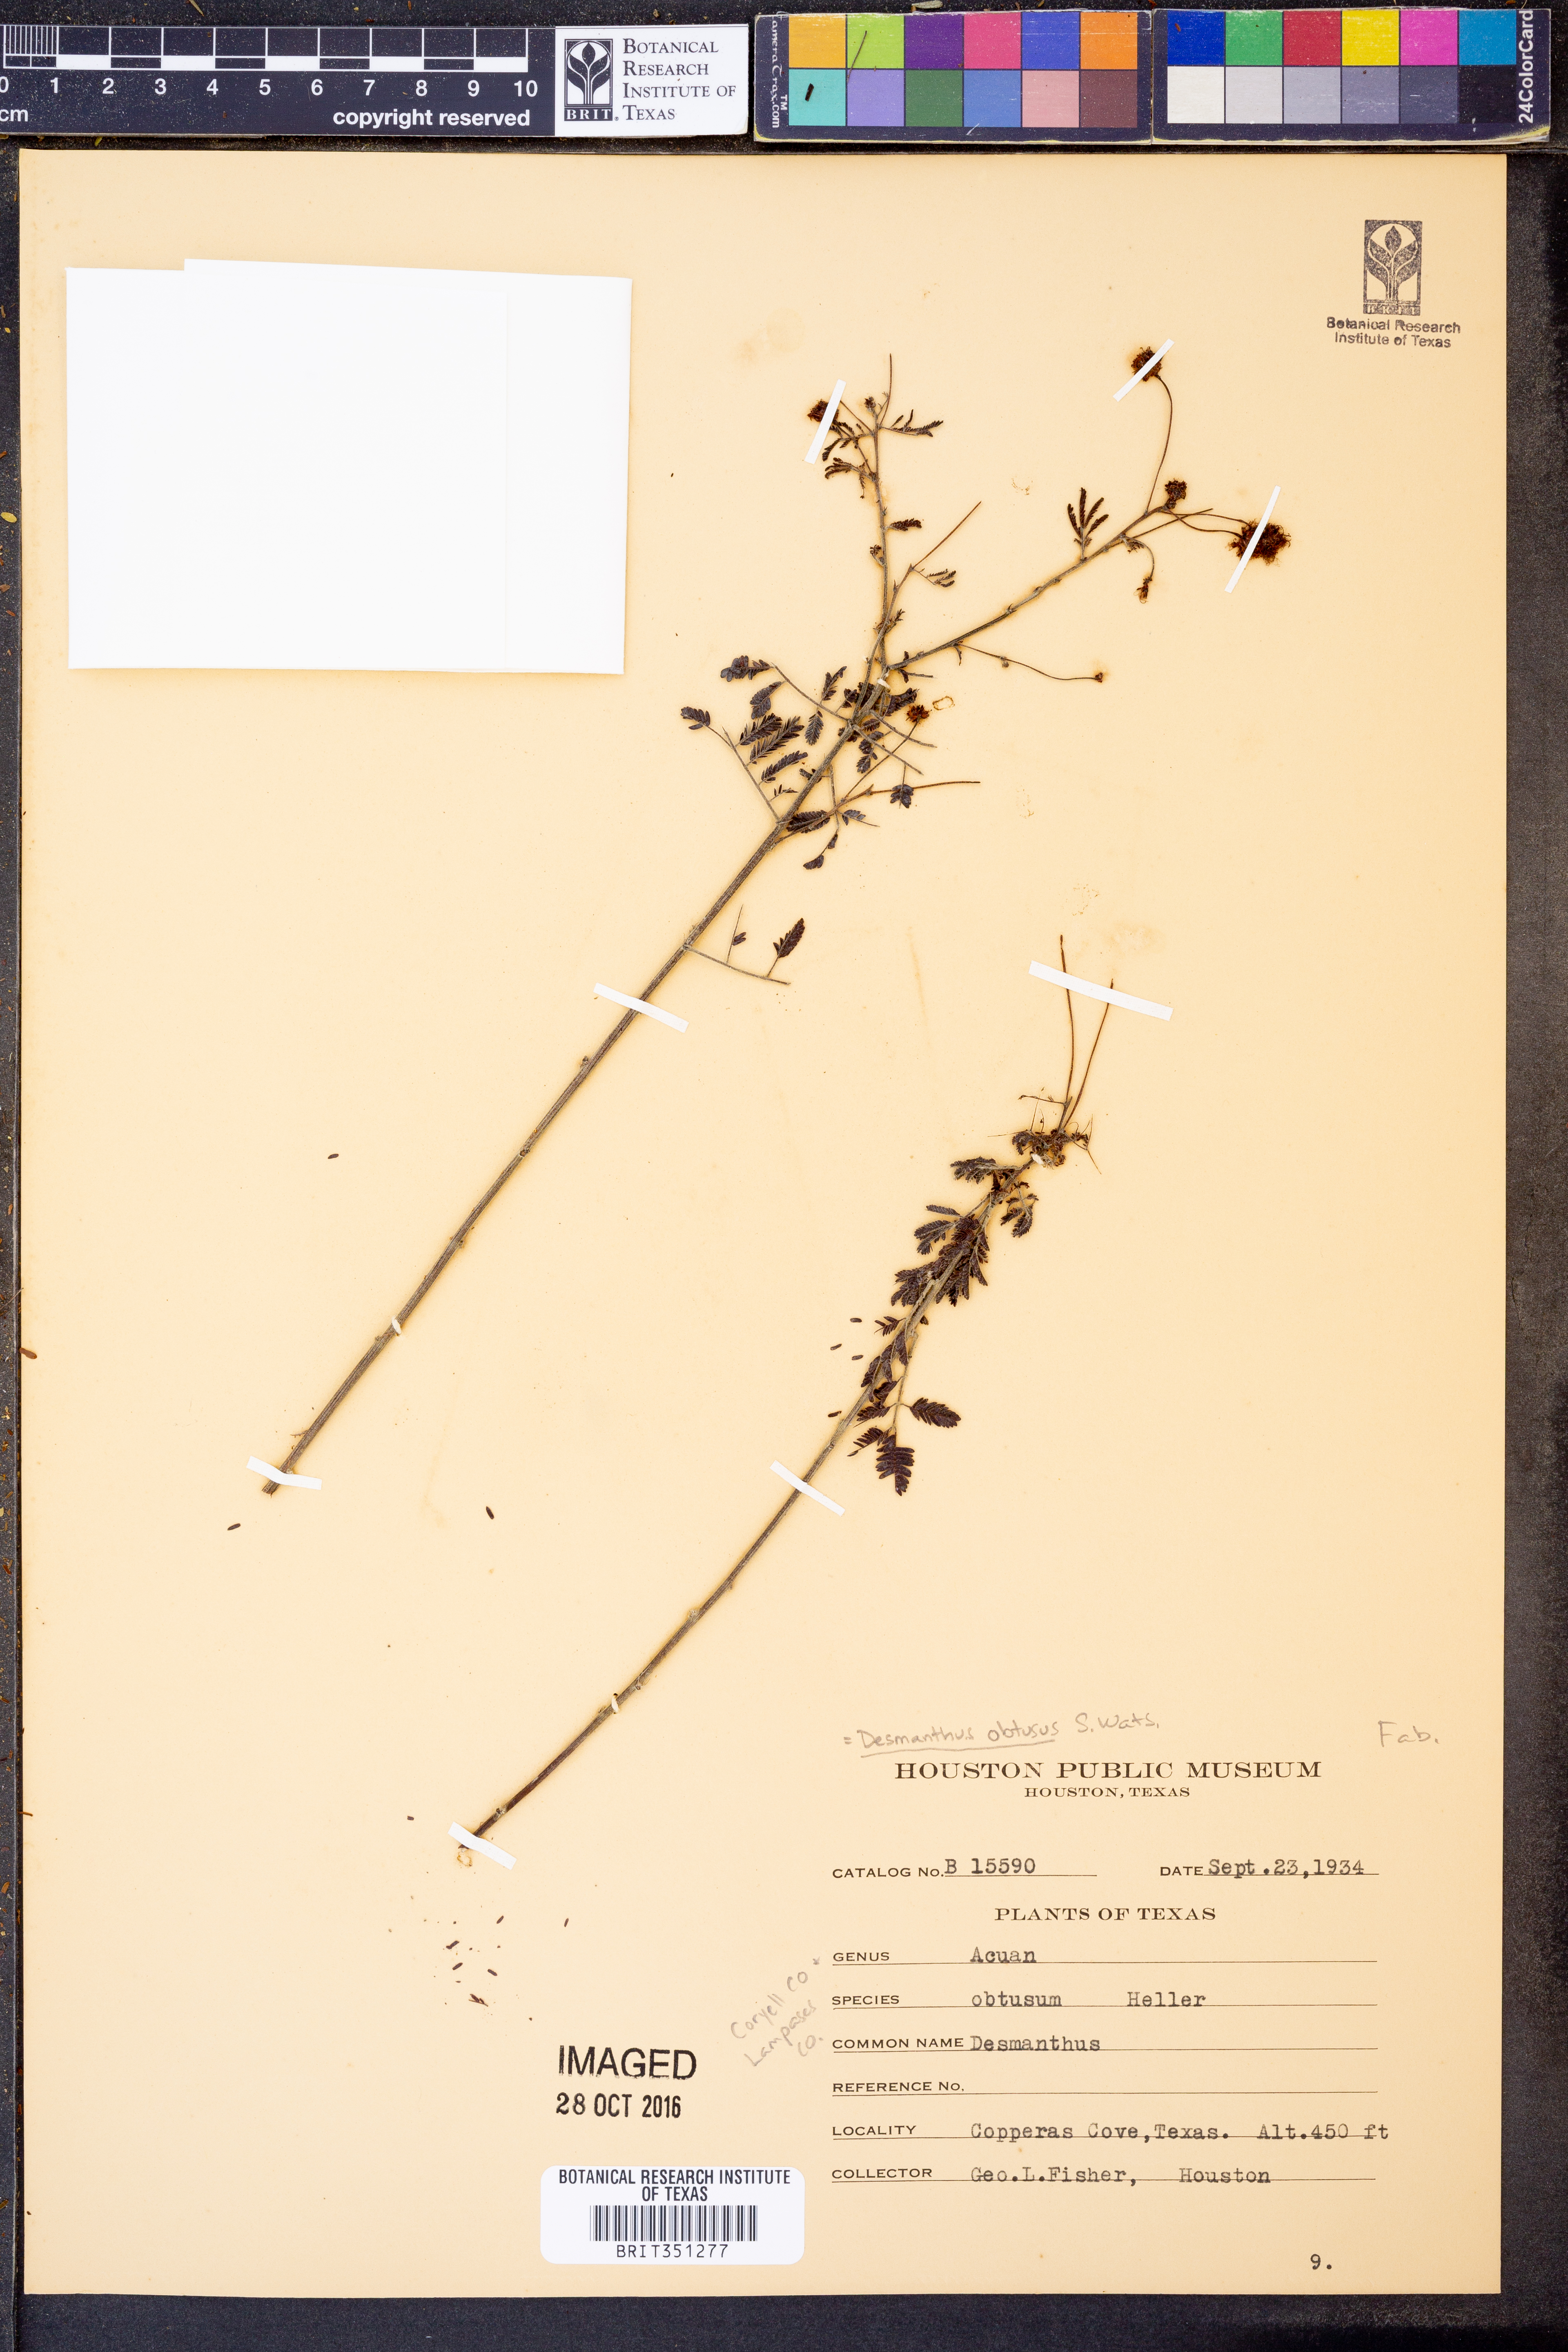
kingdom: Plantae
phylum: Tracheophyta
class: Magnoliopsida
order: Fabales
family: Fabaceae
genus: Desmanthus
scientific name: Desmanthus obtusus
